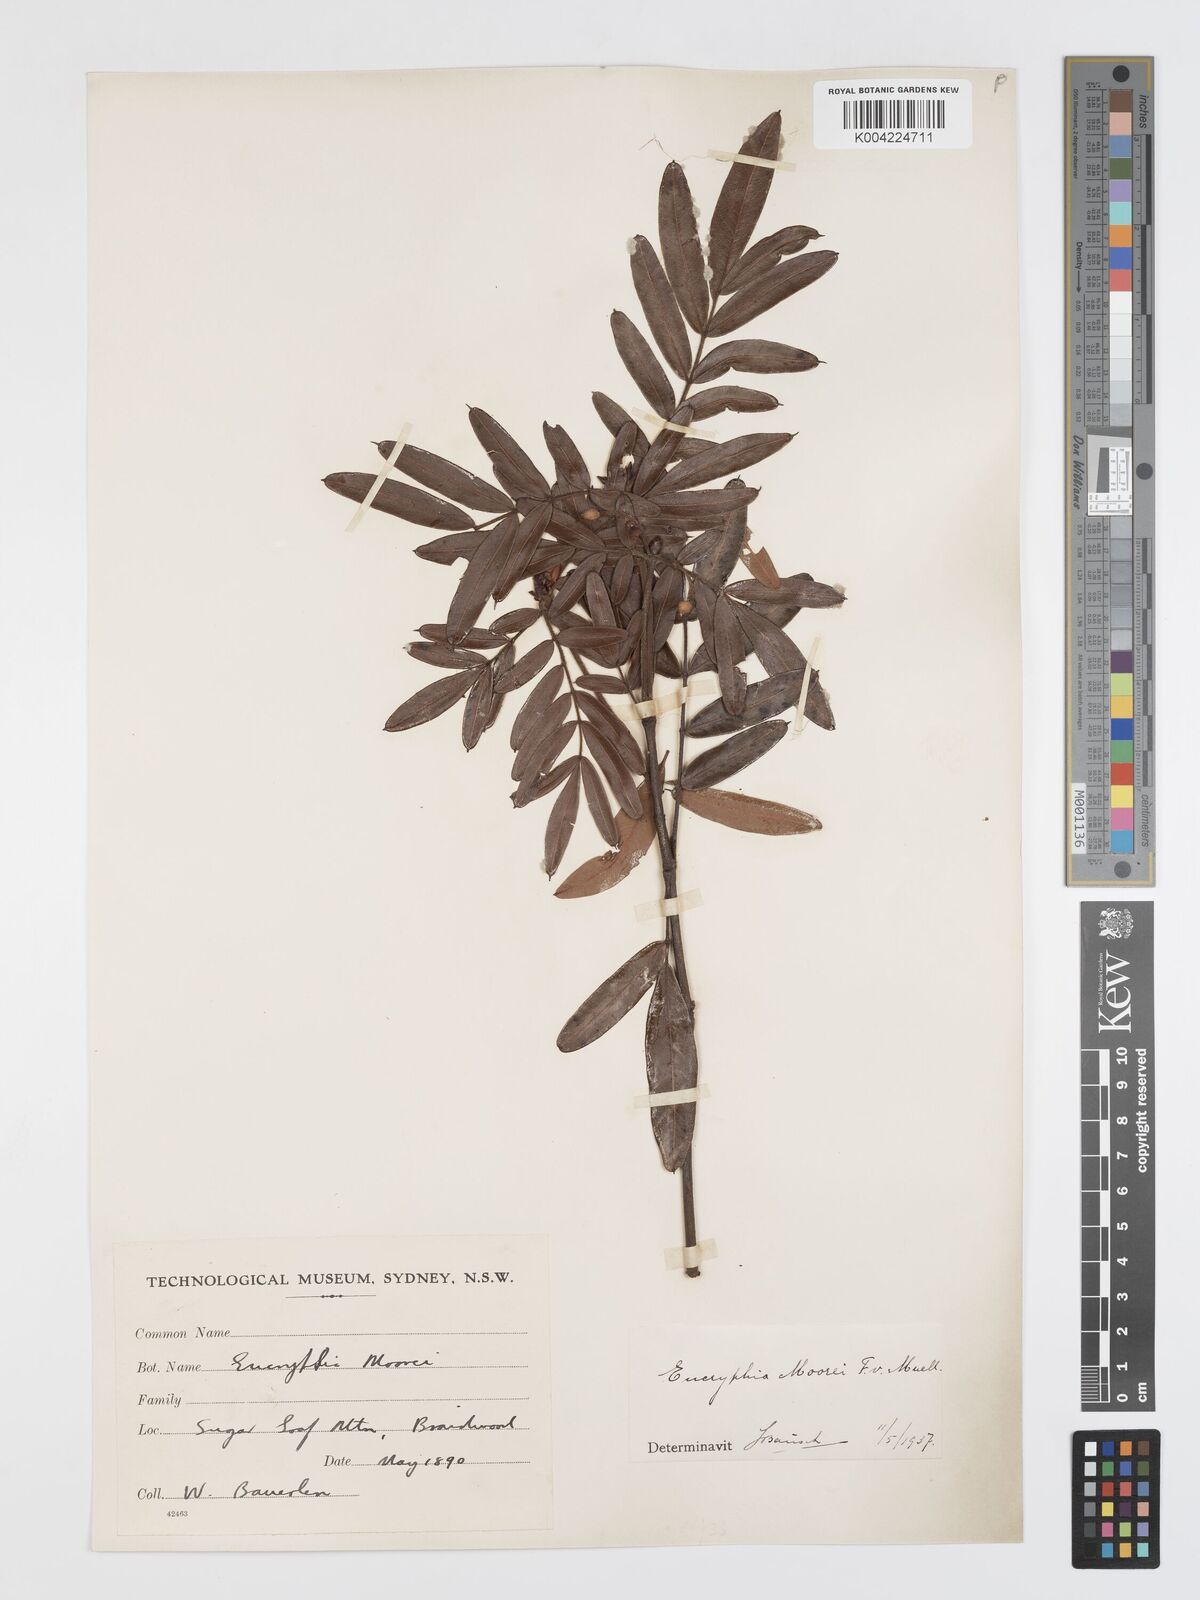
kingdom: Plantae
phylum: Tracheophyta
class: Magnoliopsida
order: Oxalidales
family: Cunoniaceae
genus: Eucryphia
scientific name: Eucryphia moorei
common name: Acacia-plum
